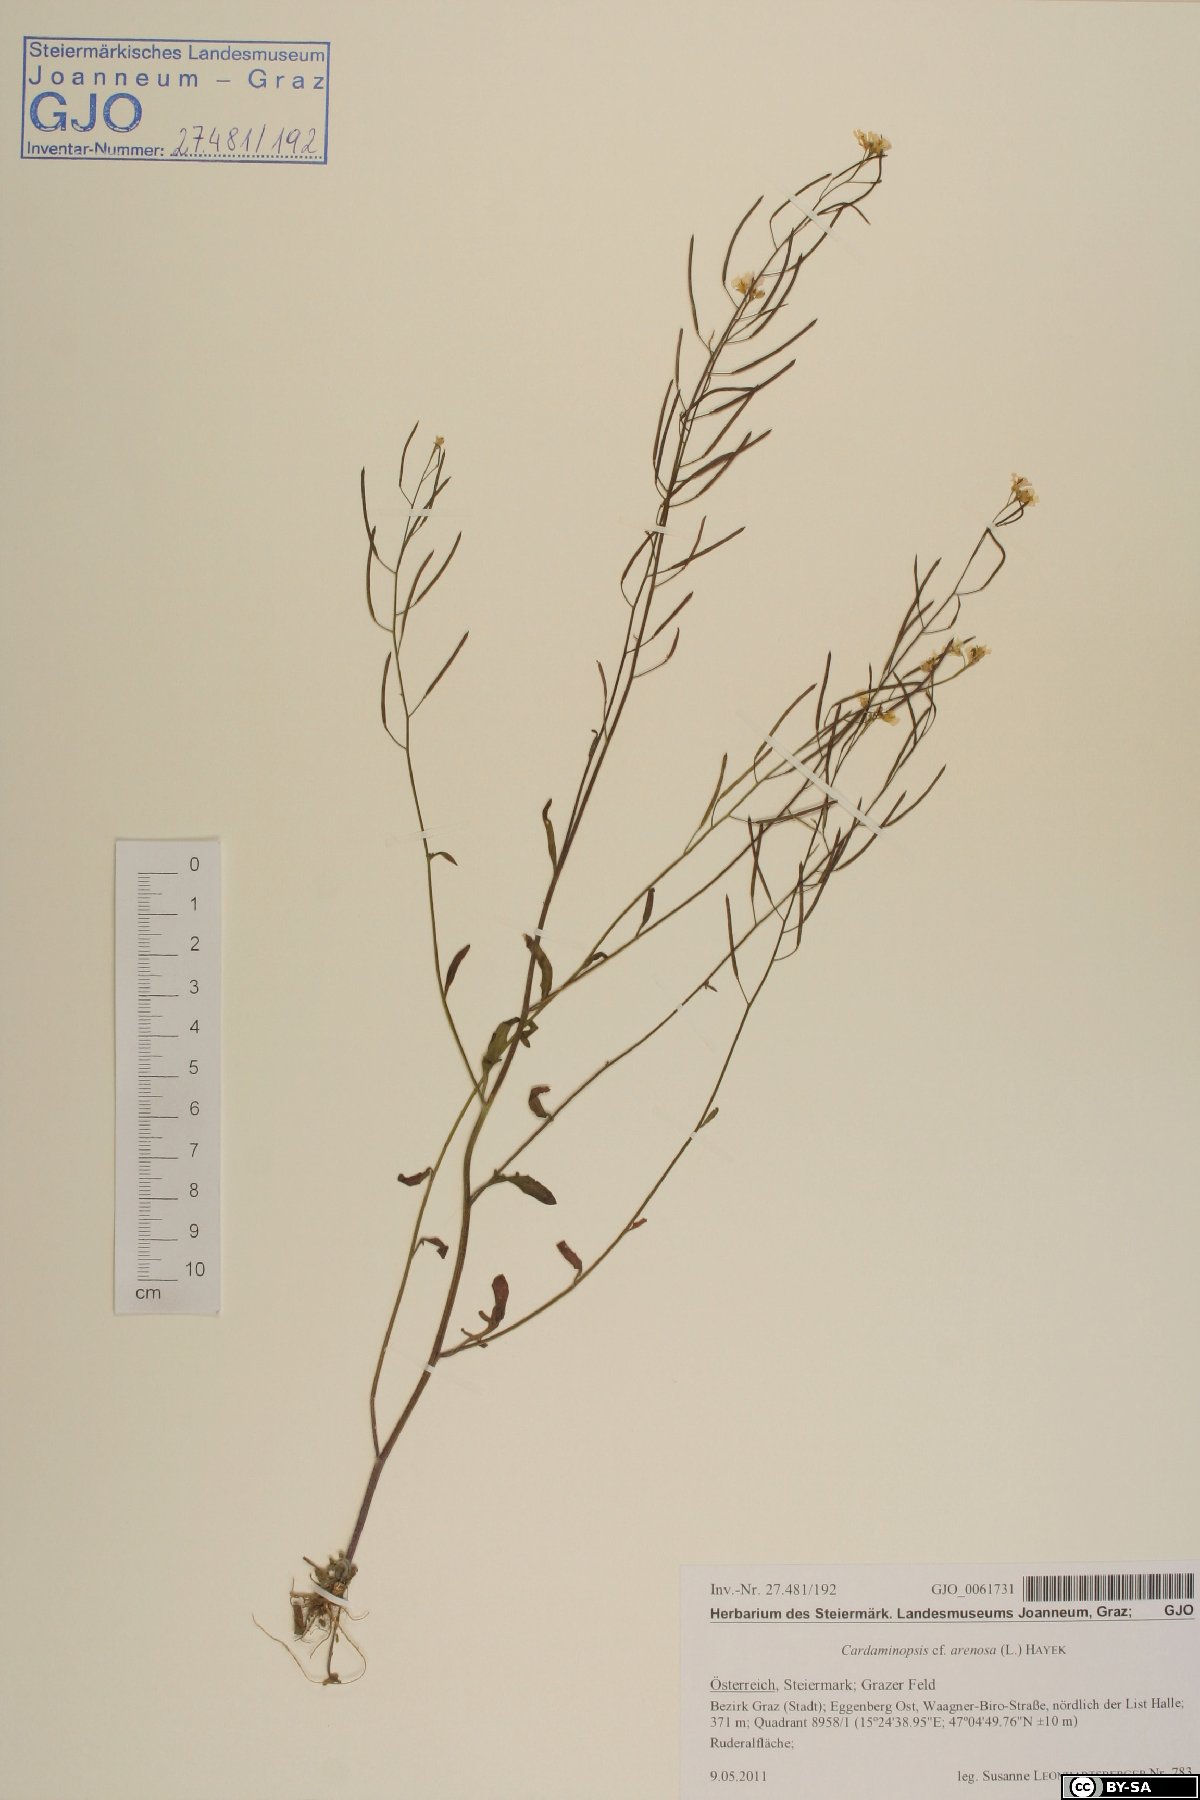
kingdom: Plantae
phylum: Tracheophyta
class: Magnoliopsida
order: Brassicales
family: Brassicaceae
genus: Arabidopsis
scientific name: Arabidopsis arenosa
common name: Sand rock-cress
